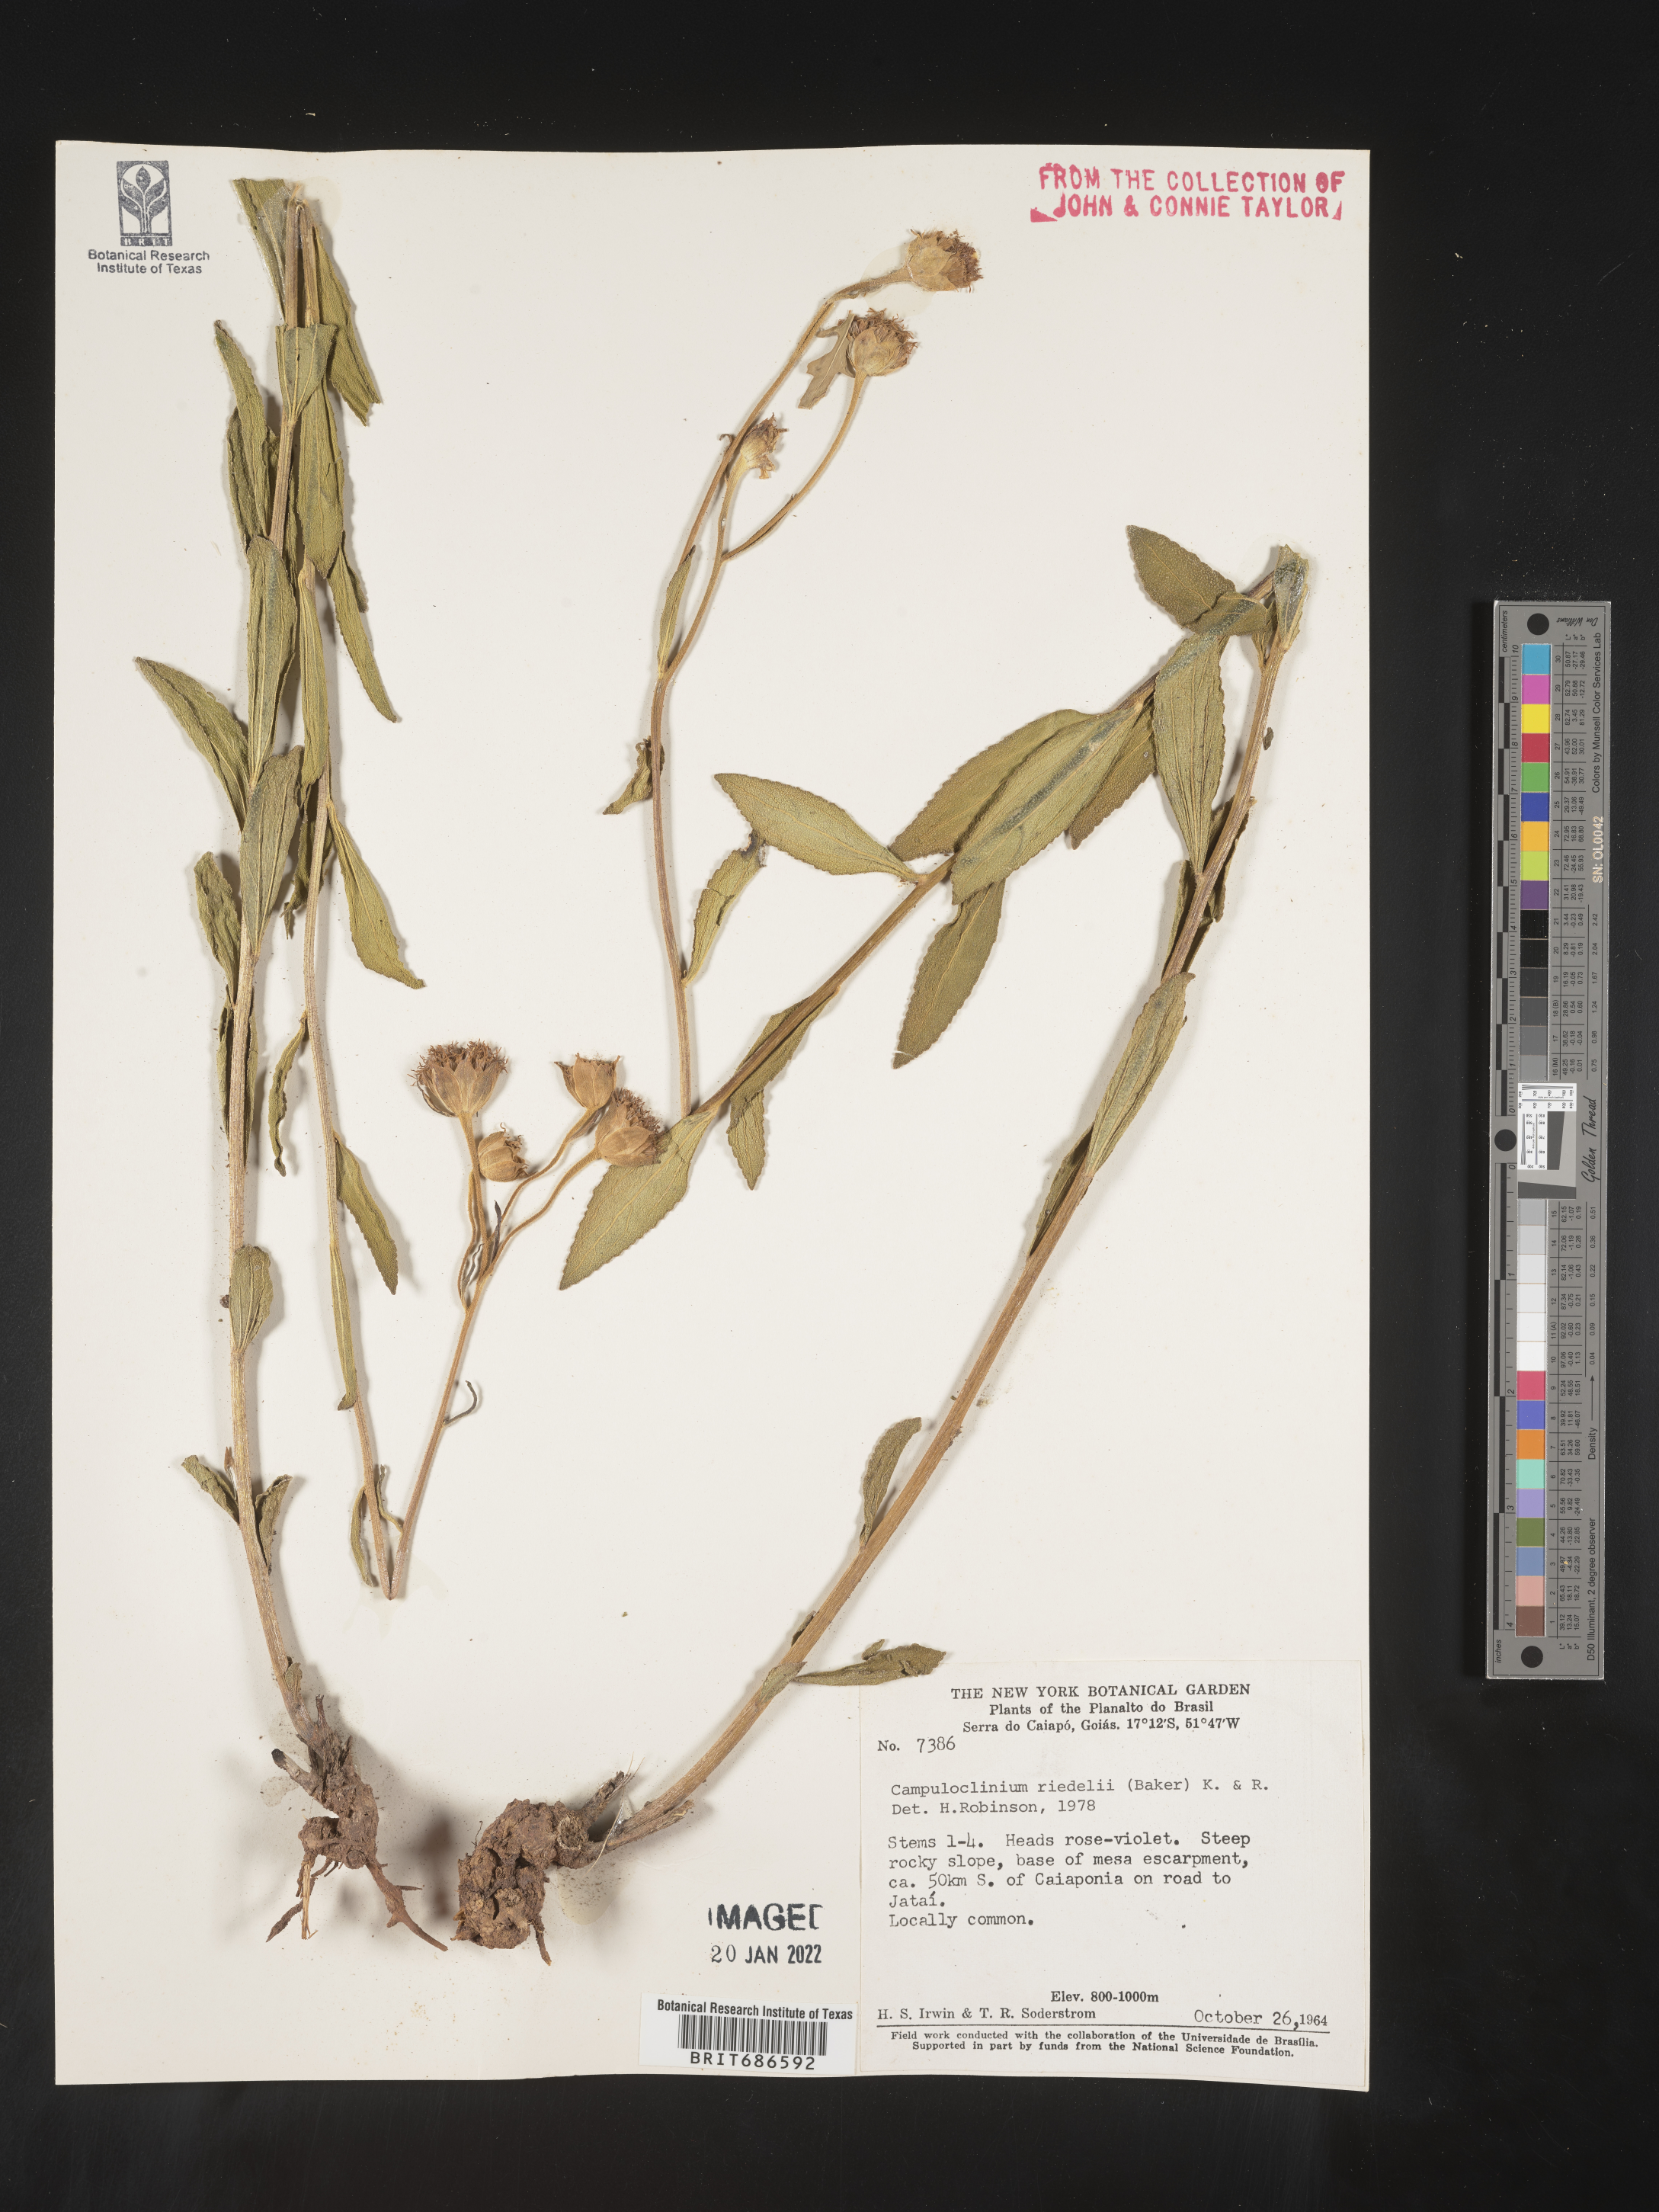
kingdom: Plantae
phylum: Tracheophyta
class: Magnoliopsida
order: Asterales
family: Asteraceae
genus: Campuloclinium
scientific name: Campuloclinium
